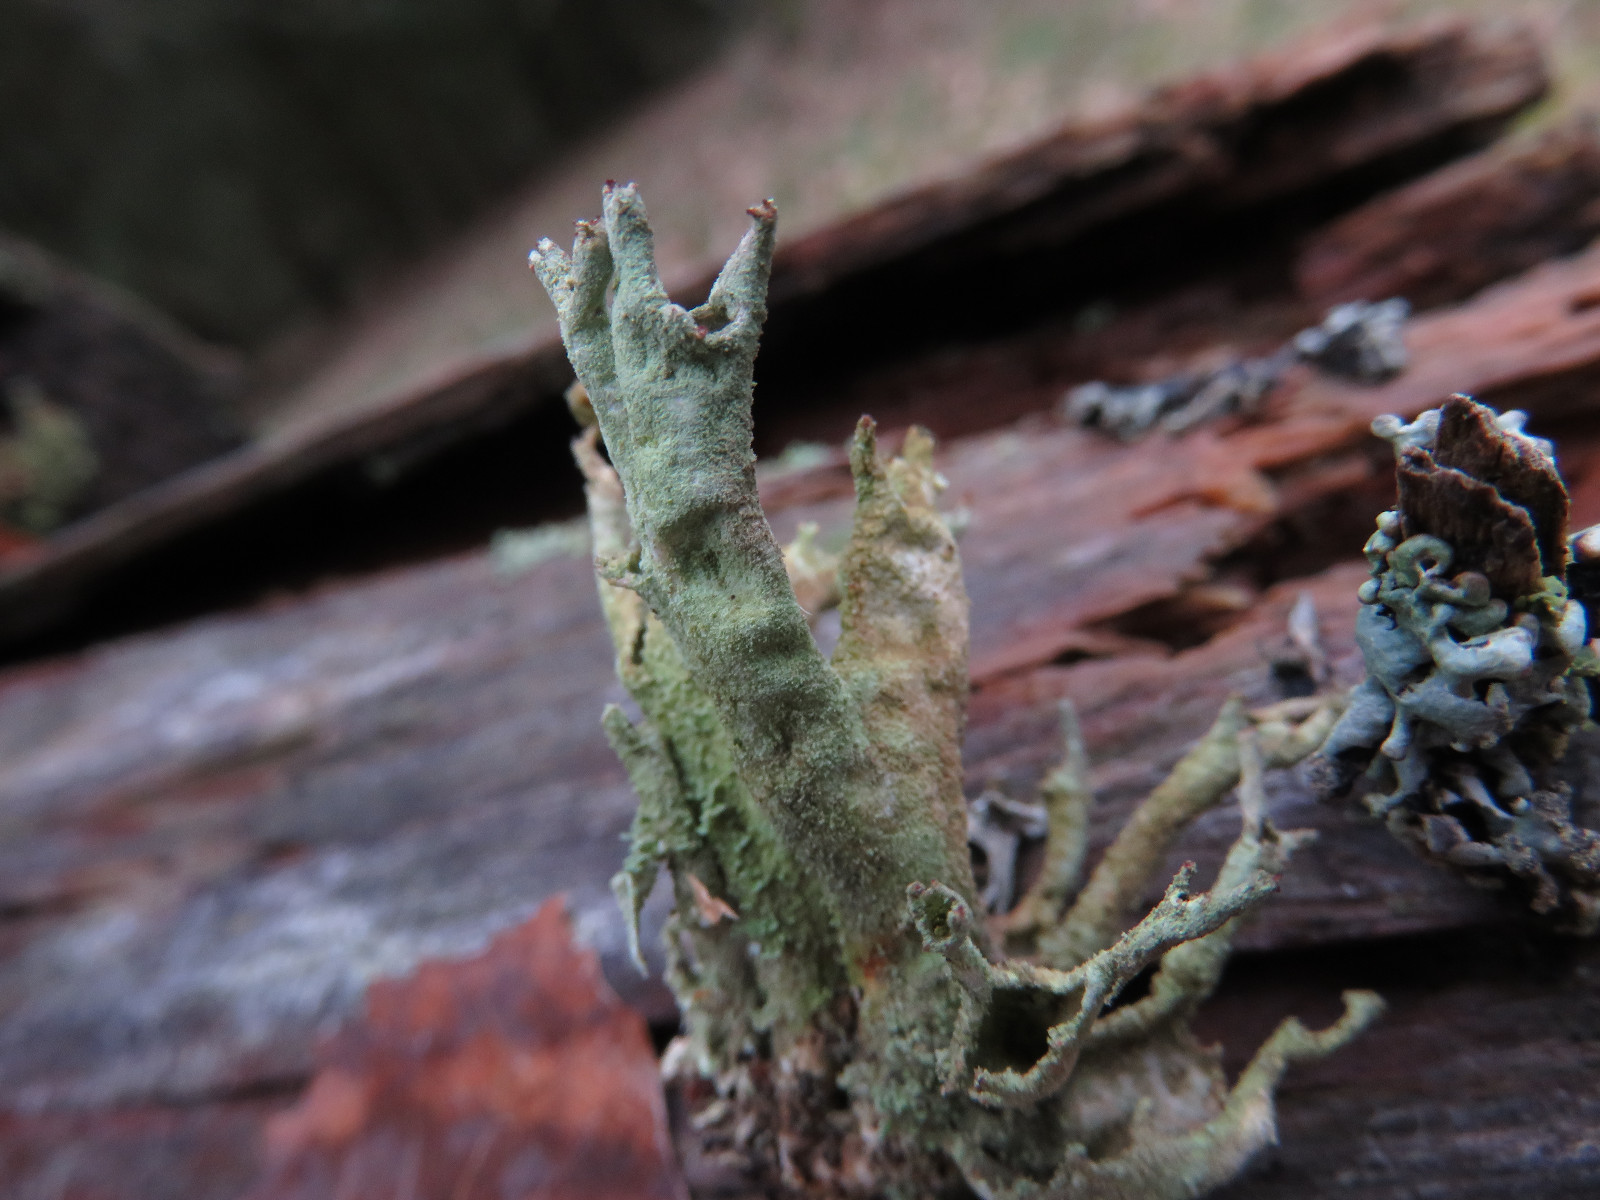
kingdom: Fungi
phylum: Ascomycota
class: Lecanoromycetes
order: Lecanorales
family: Cladoniaceae
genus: Cladonia
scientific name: Cladonia cenotea
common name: pudret bægerlav
